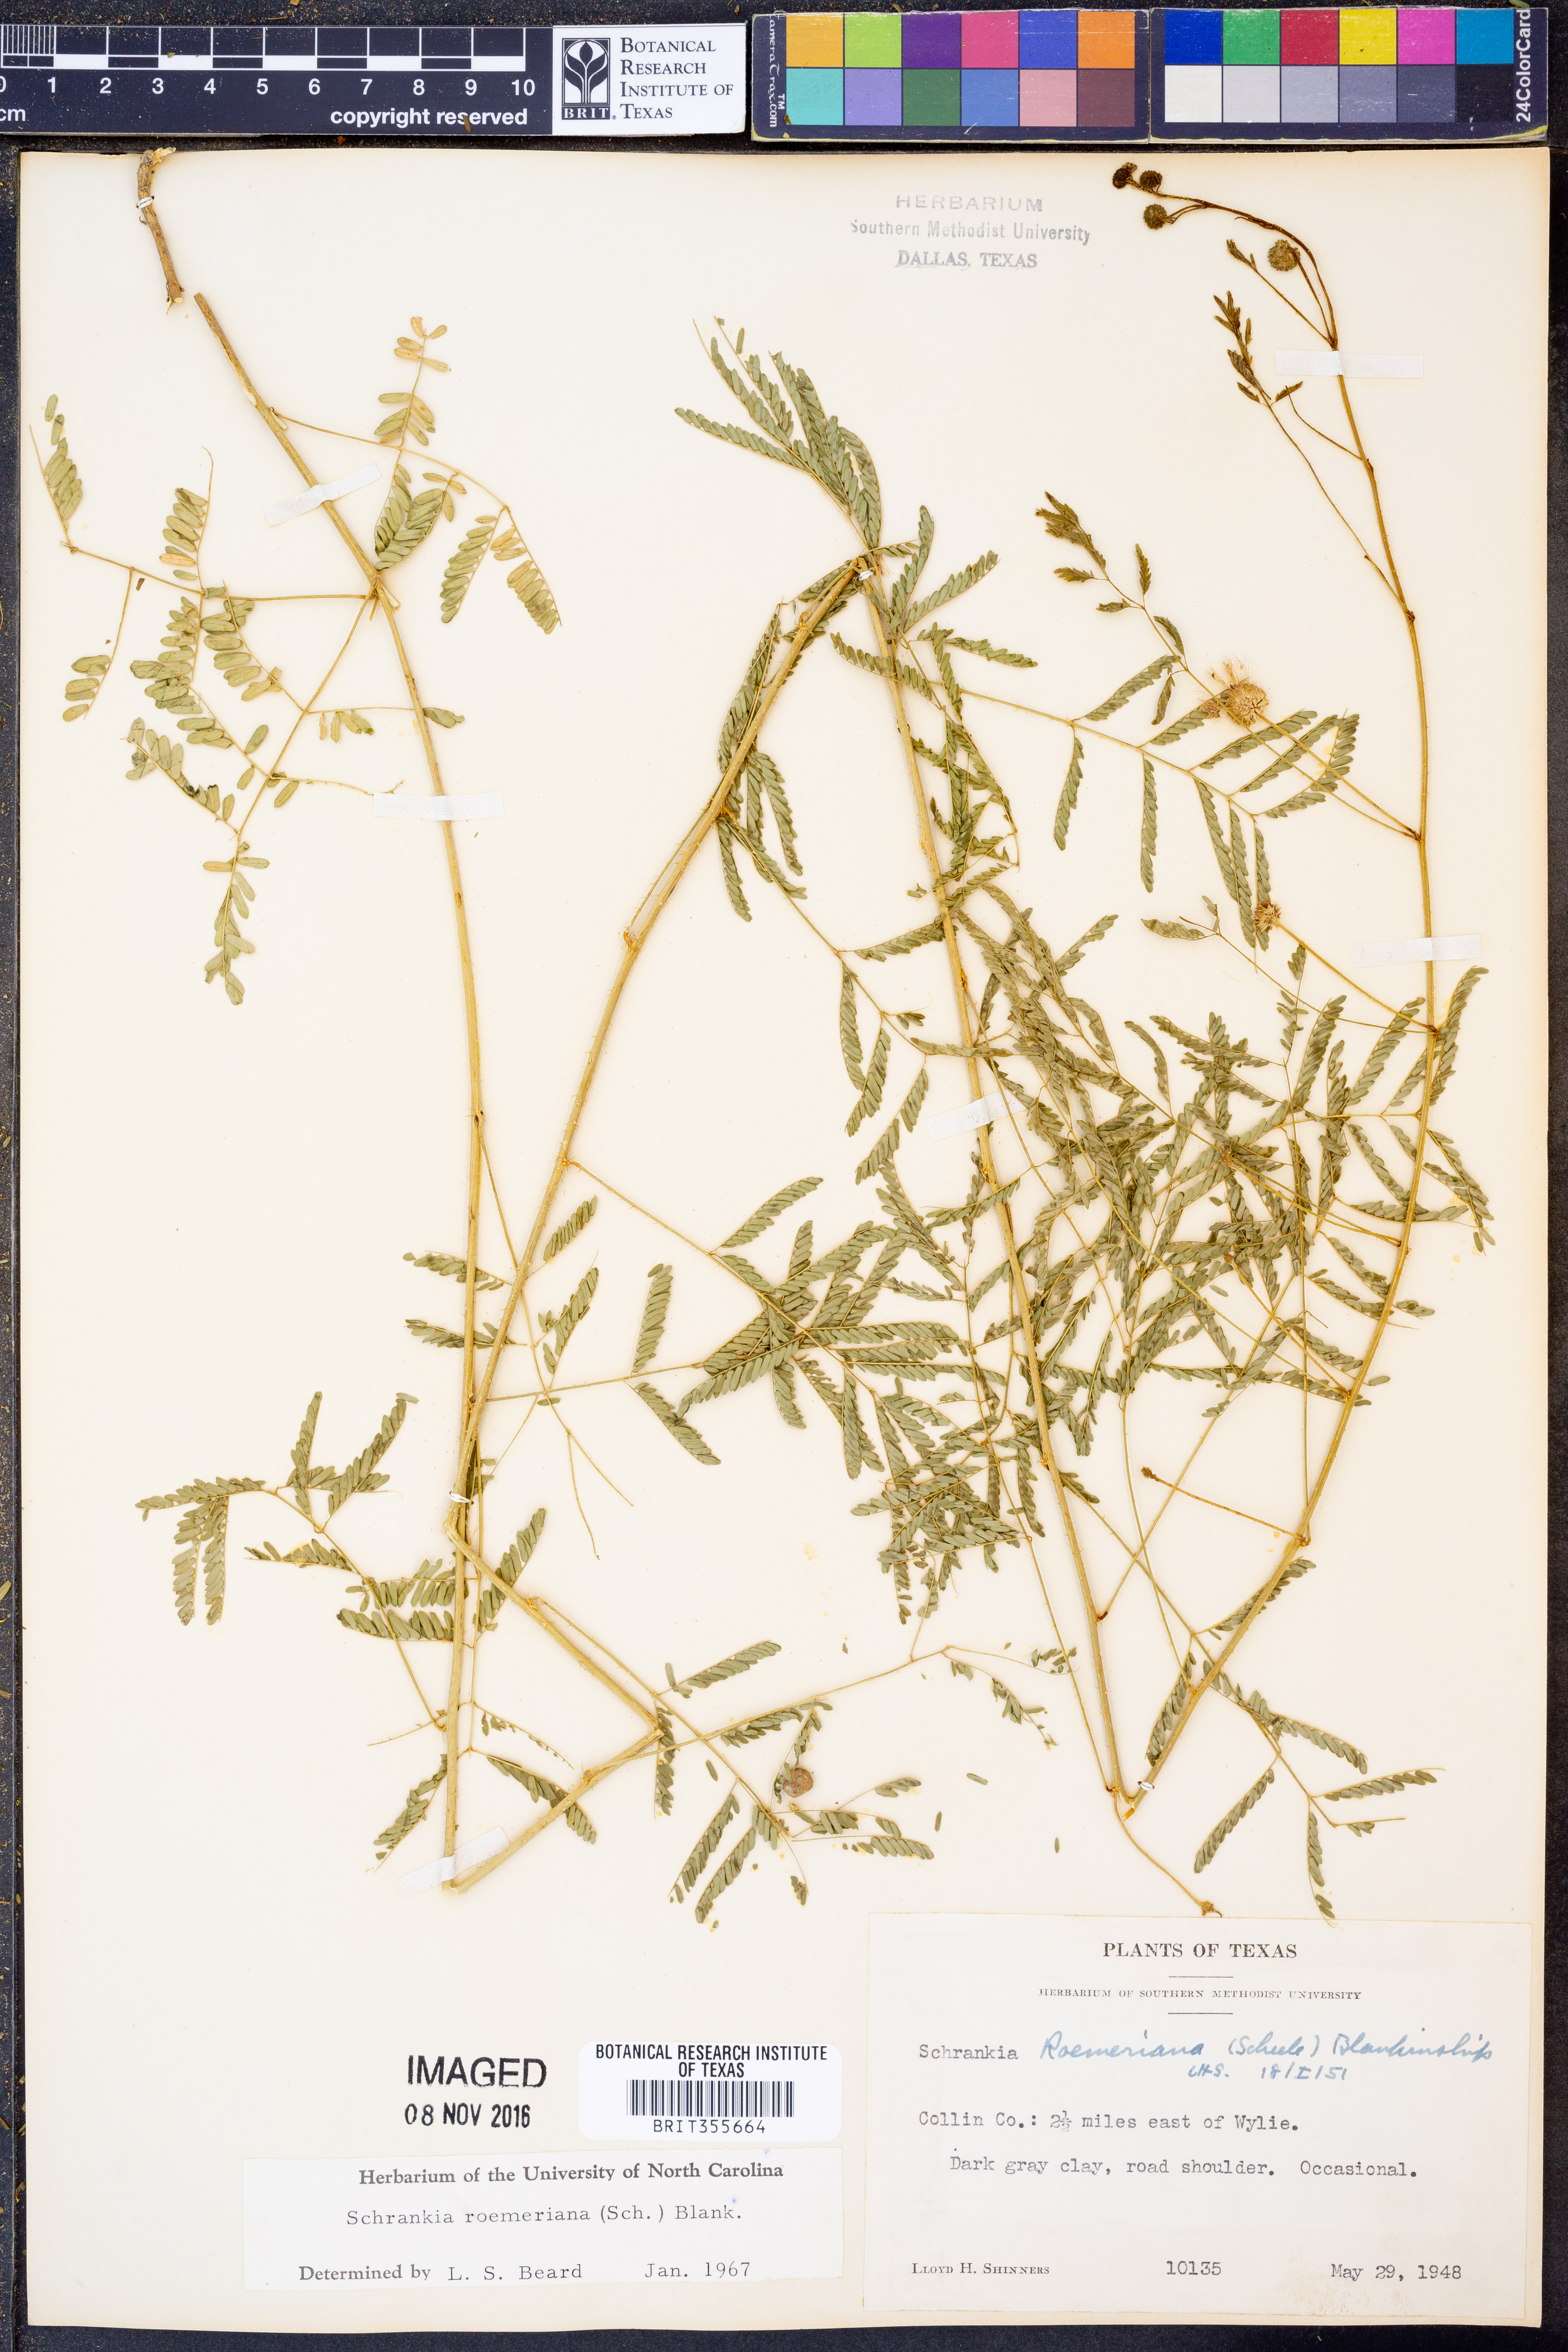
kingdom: Plantae
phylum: Tracheophyta
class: Magnoliopsida
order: Fabales
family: Fabaceae
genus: Mimosa
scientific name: Mimosa quadrivalvis
